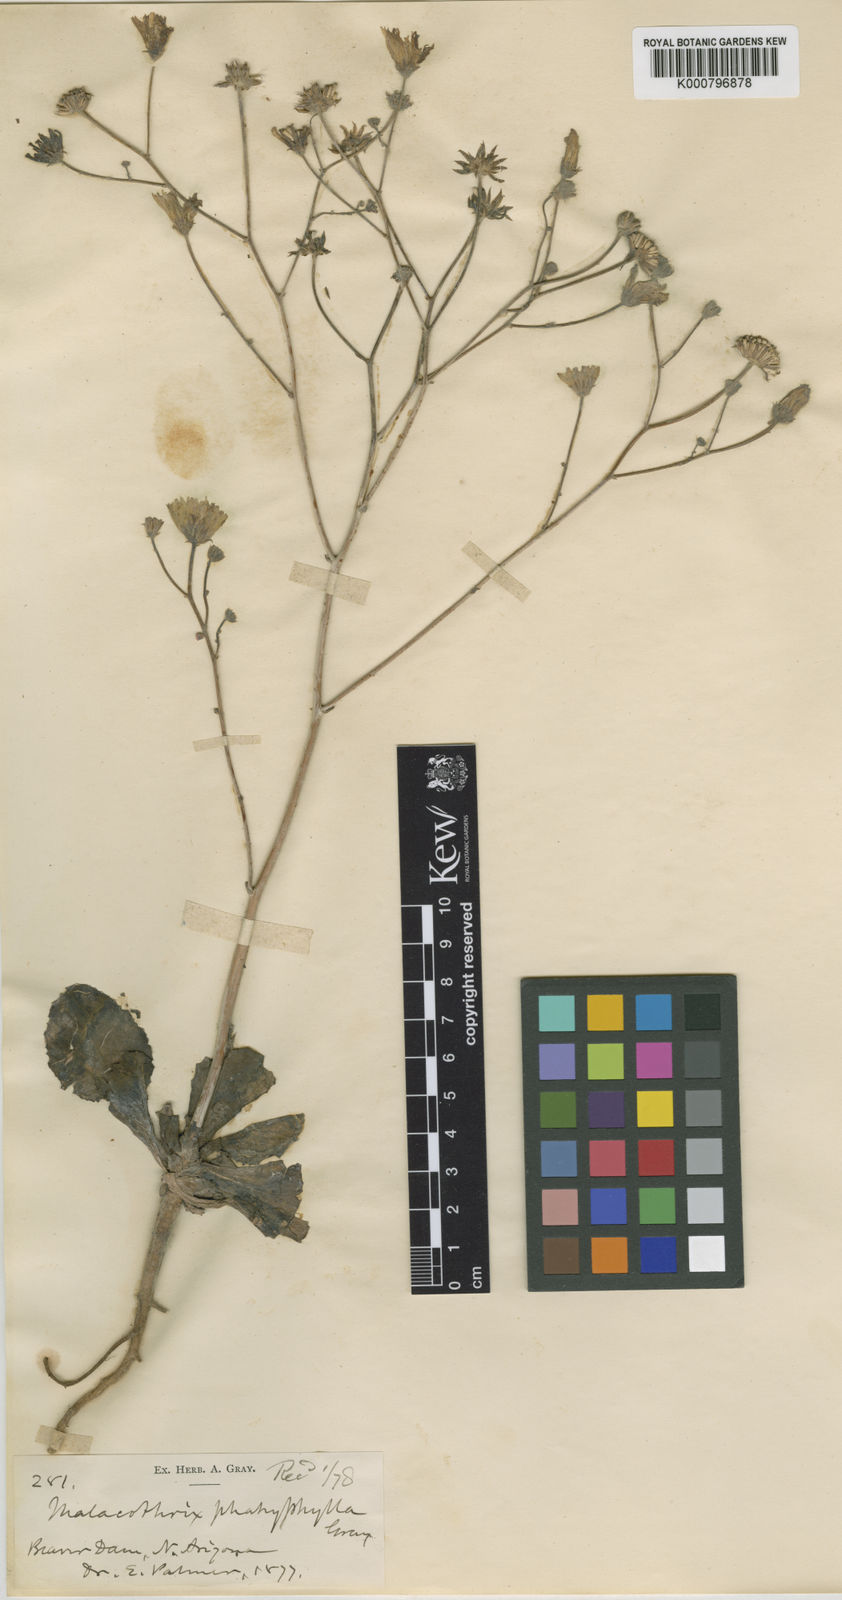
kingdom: Plantae
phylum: Tracheophyta
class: Magnoliopsida
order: Asterales
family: Asteraceae
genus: Atrichoseris
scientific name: Atrichoseris platyphylla
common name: Tobaccoweed
